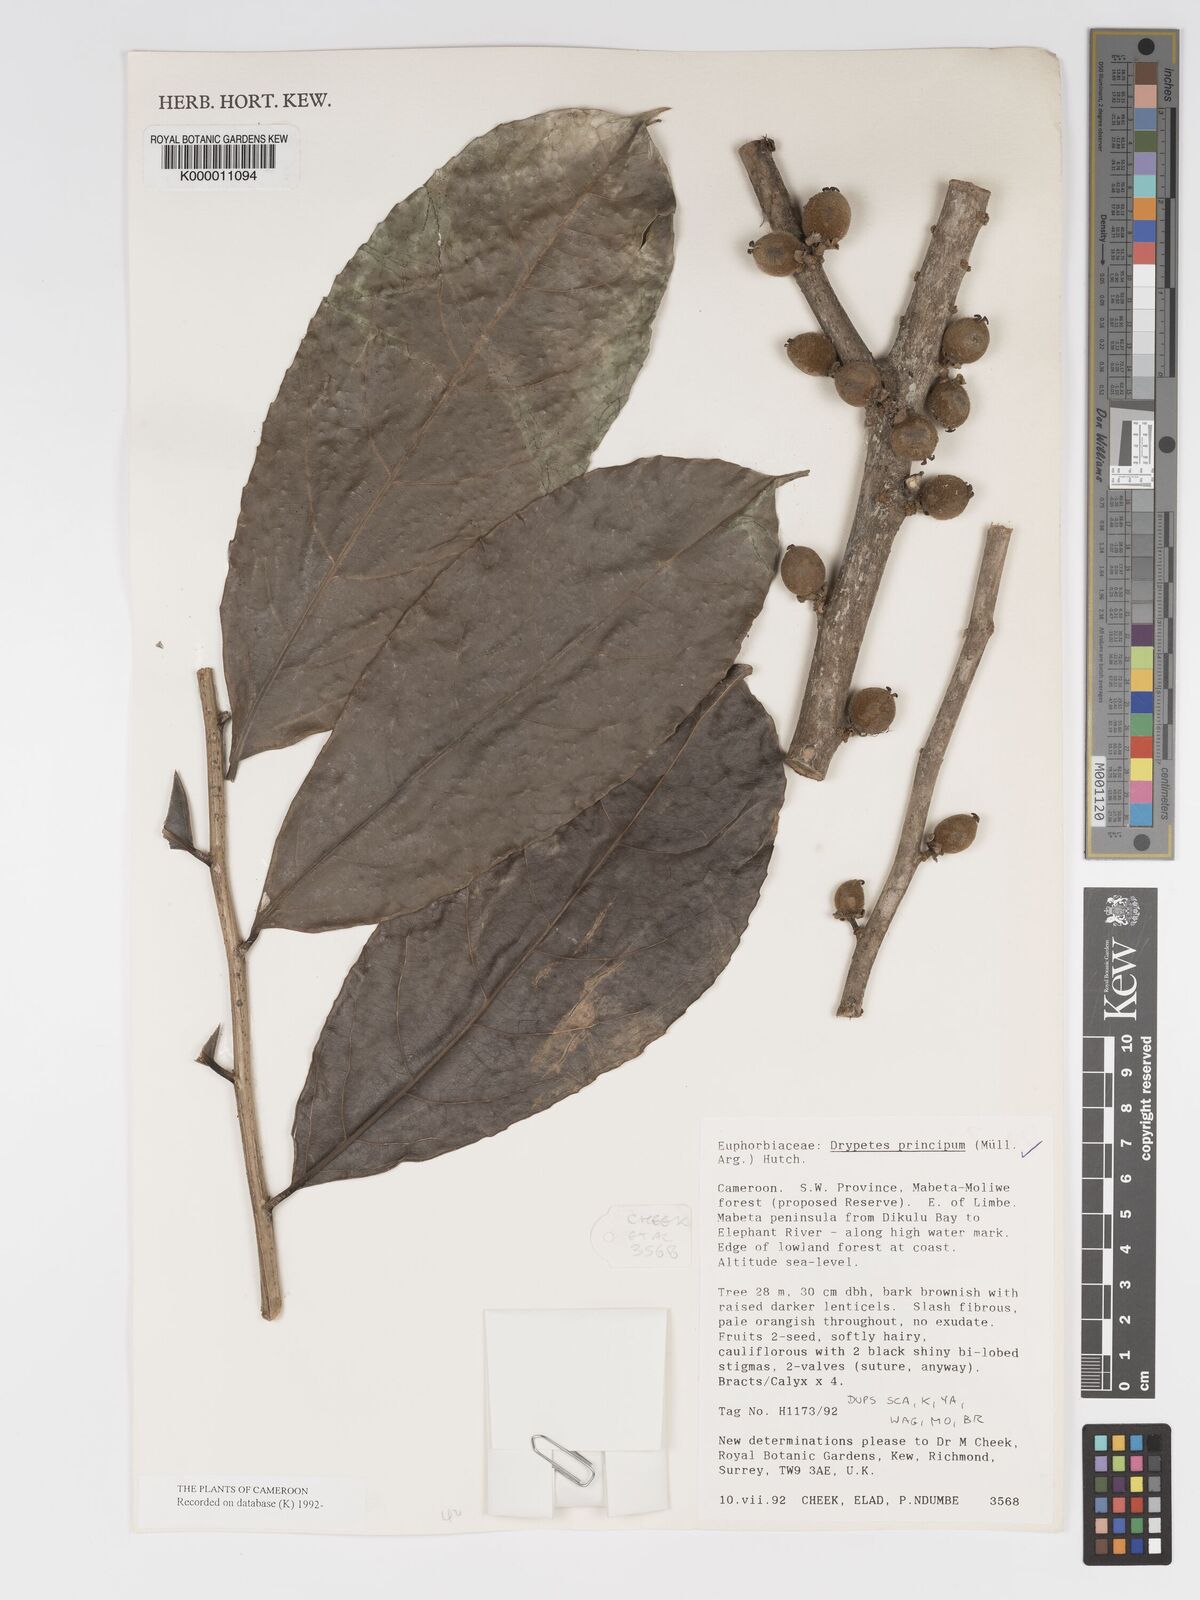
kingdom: Plantae
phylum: Tracheophyta
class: Magnoliopsida
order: Malpighiales
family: Putranjivaceae
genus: Drypetes
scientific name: Drypetes
